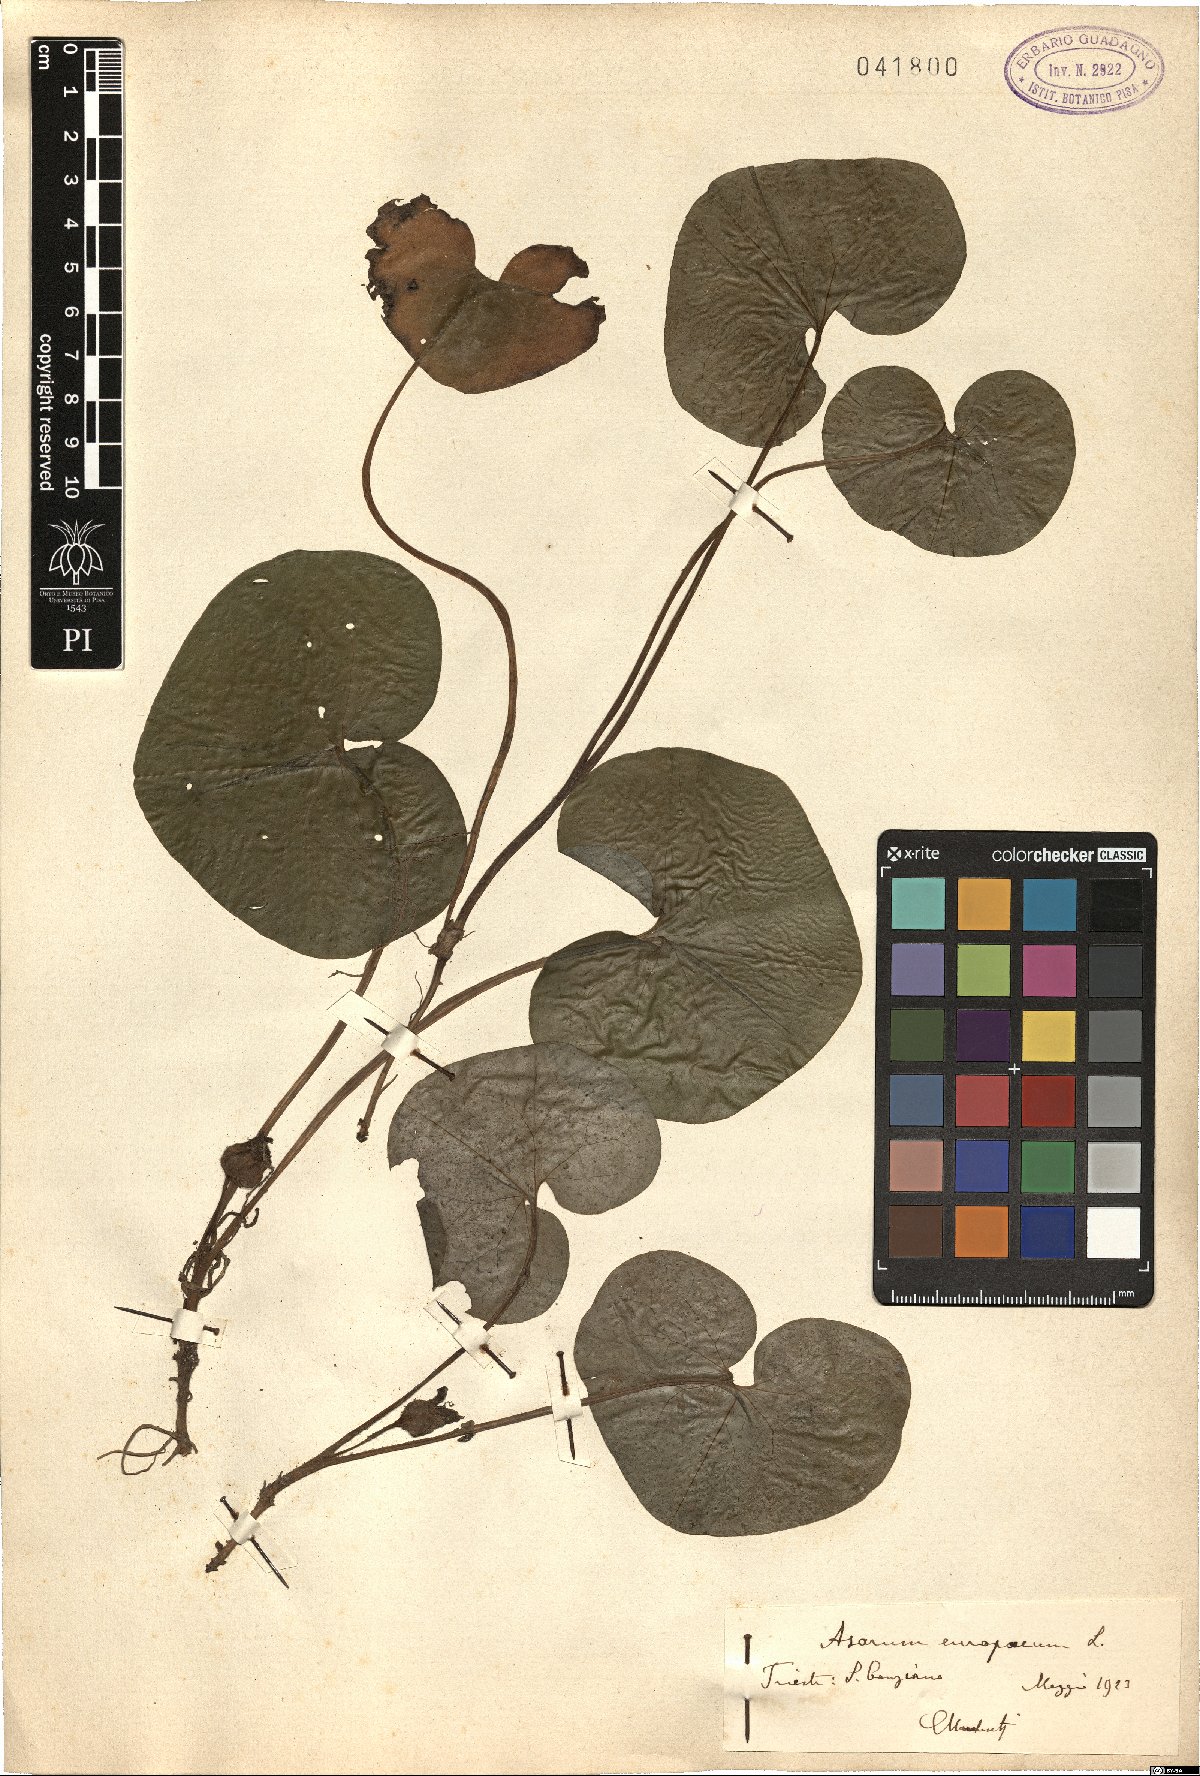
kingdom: Plantae
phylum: Tracheophyta
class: Magnoliopsida
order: Piperales
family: Aristolochiaceae
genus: Asarum
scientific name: Asarum europaeum
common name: Asarabacca
